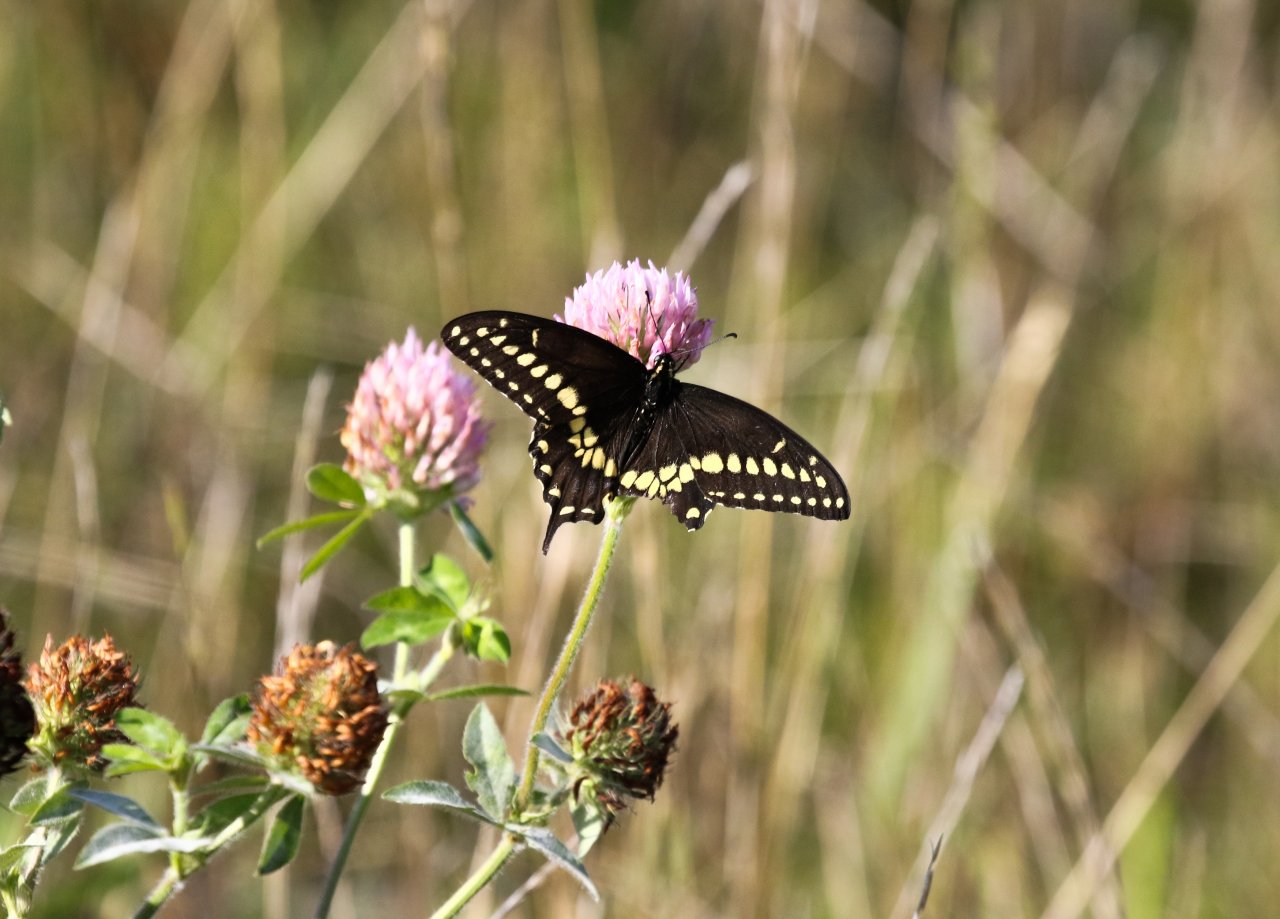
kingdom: Animalia
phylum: Arthropoda
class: Insecta
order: Lepidoptera
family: Papilionidae
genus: Papilio
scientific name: Papilio polyxenes
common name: Black Swallowtail
